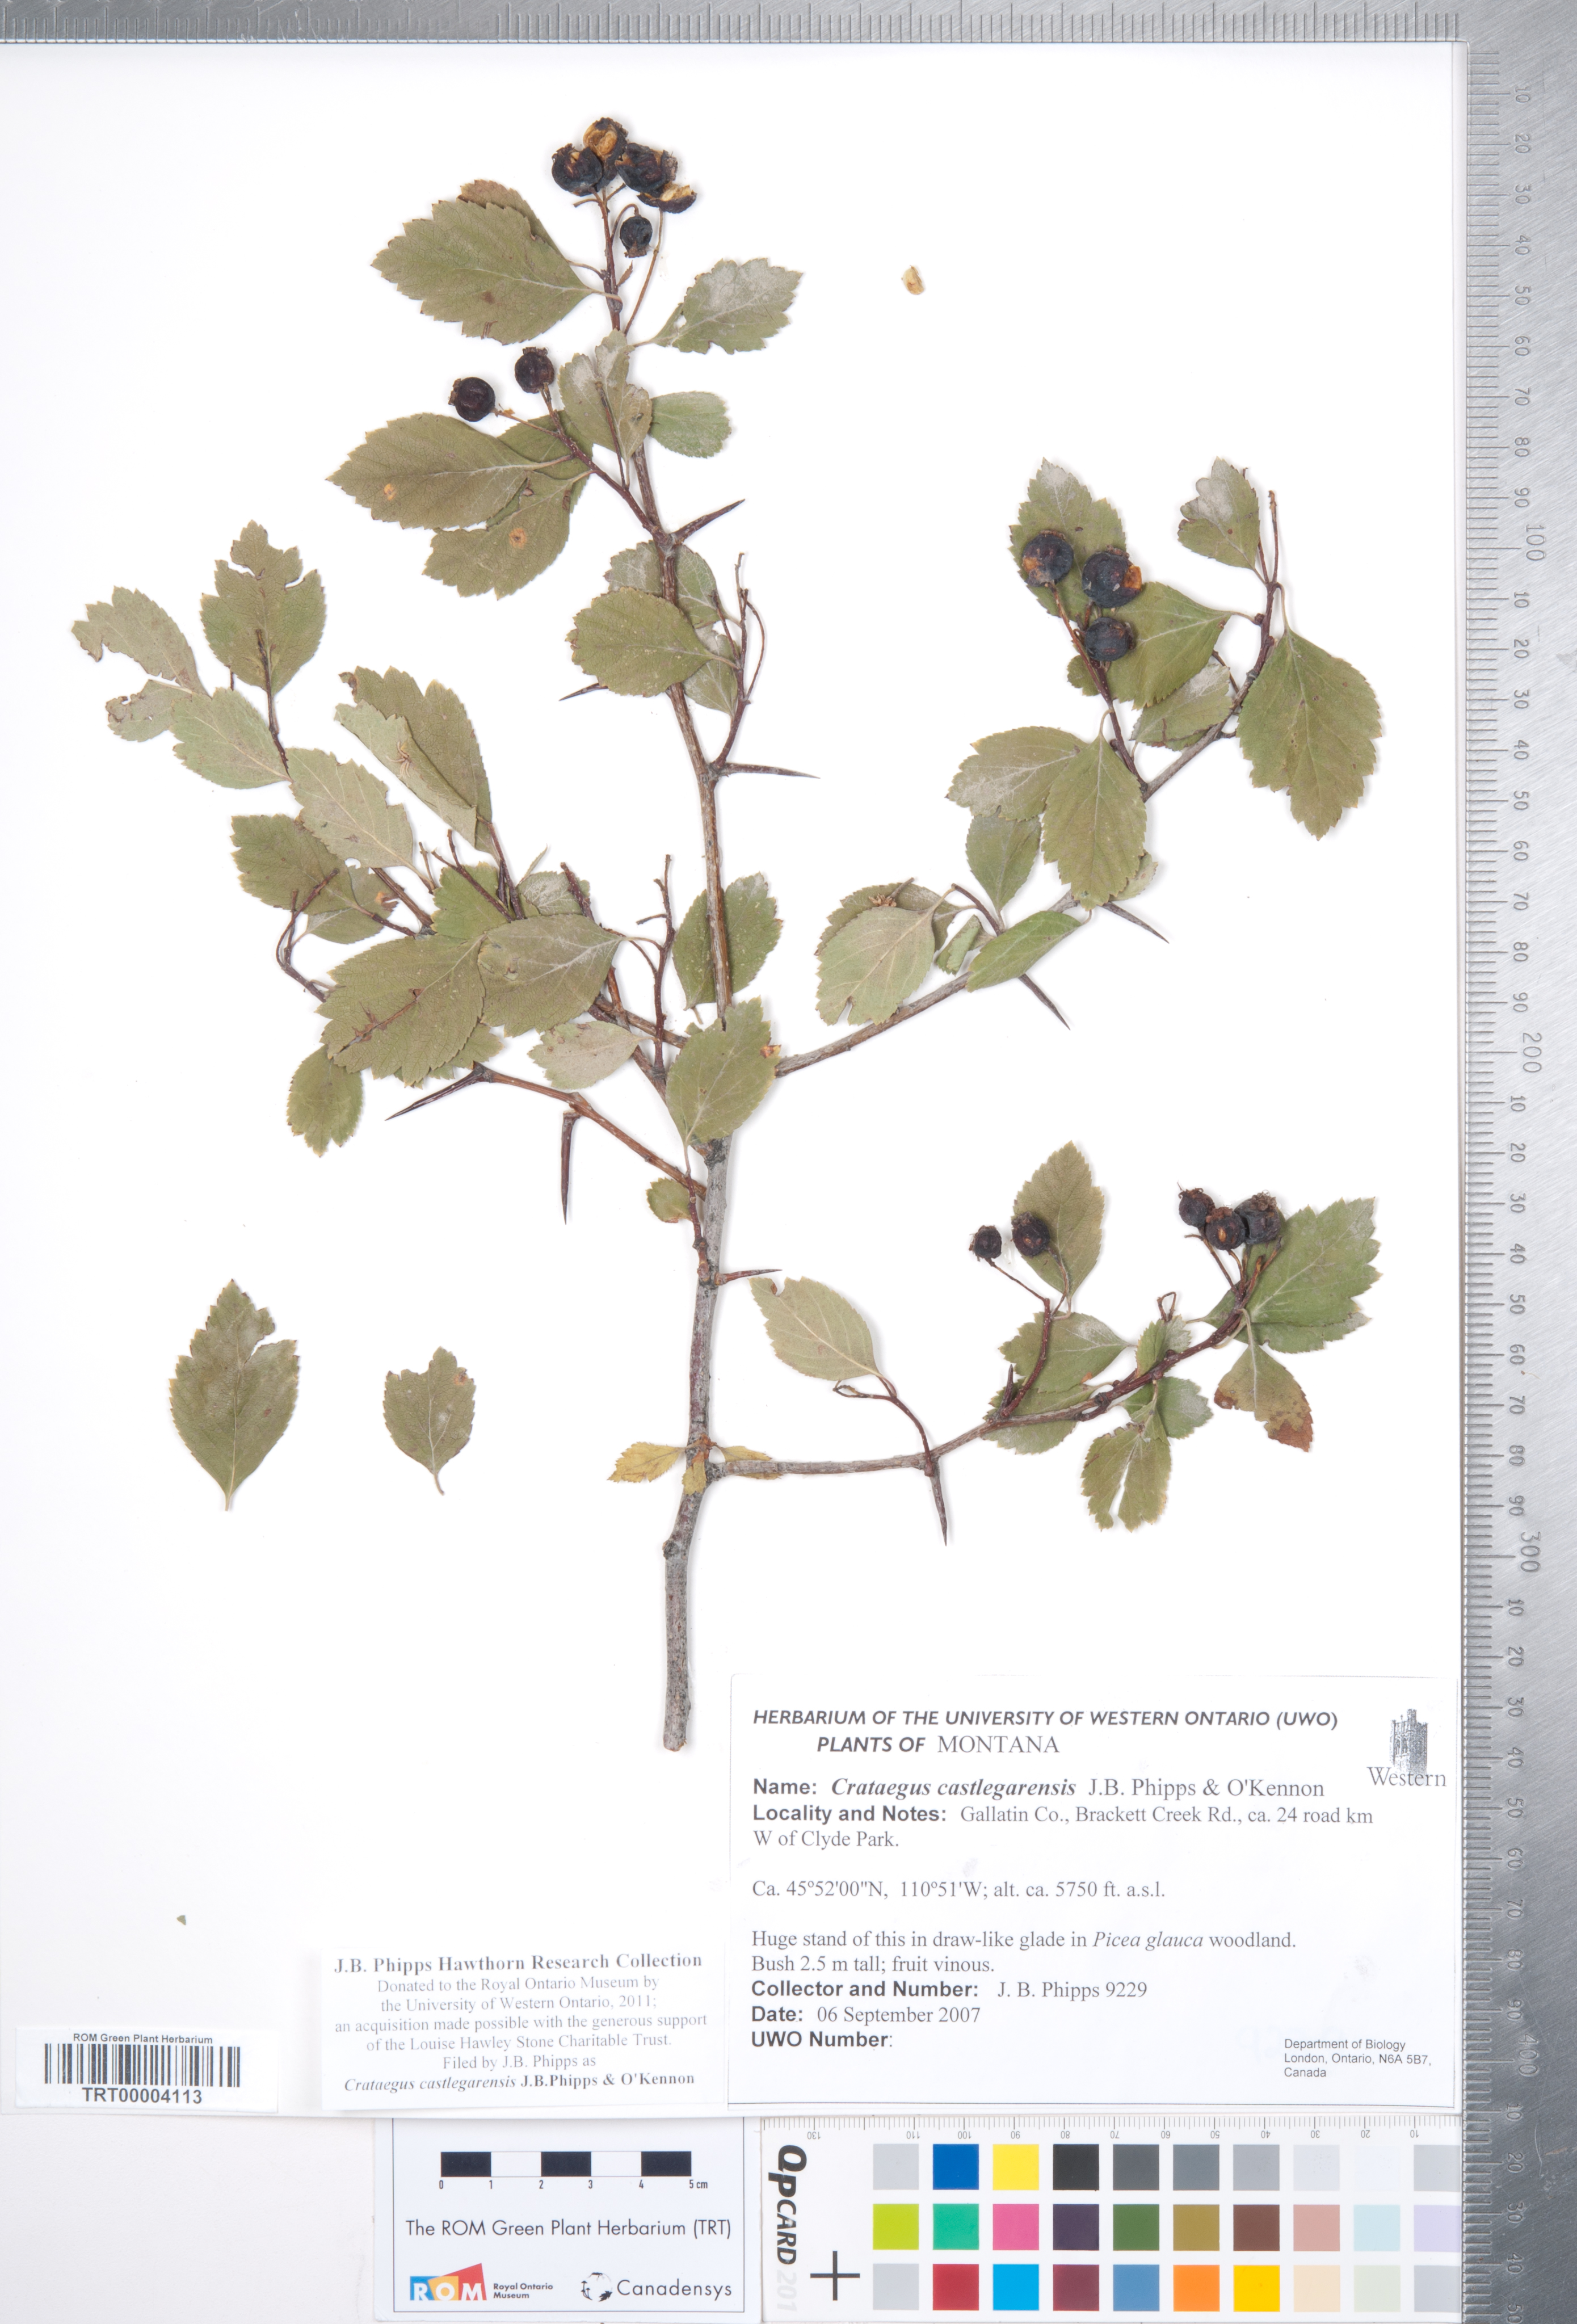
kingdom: Plantae
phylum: Tracheophyta
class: Magnoliopsida
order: Rosales
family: Rosaceae
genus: Crataegus
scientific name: Crataegus castlegarensis
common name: Castlegar hawthorn
